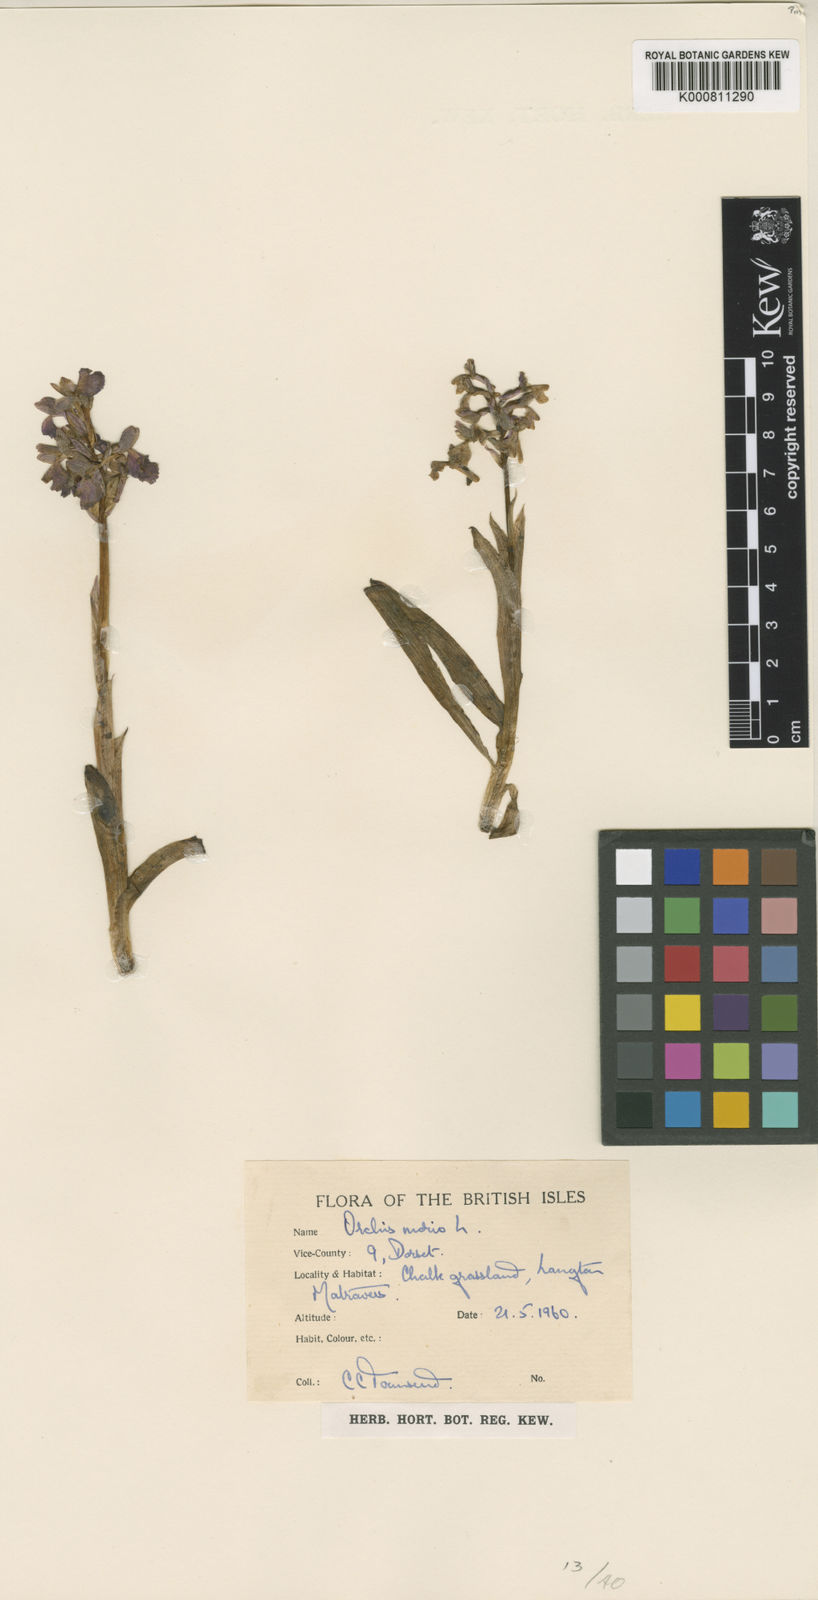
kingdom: Plantae
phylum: Tracheophyta
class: Liliopsida
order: Asparagales
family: Orchidaceae
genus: Anacamptis
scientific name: Anacamptis morio
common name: Green-winged orchid
